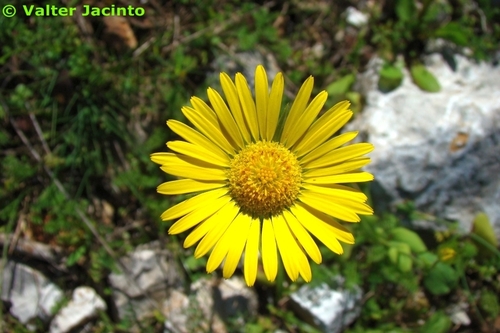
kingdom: Plantae
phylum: Tracheophyta
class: Magnoliopsida
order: Asterales
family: Asteraceae
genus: Doronicum
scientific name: Doronicum plantagineum
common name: Plantain-leaved leopard's-bane
